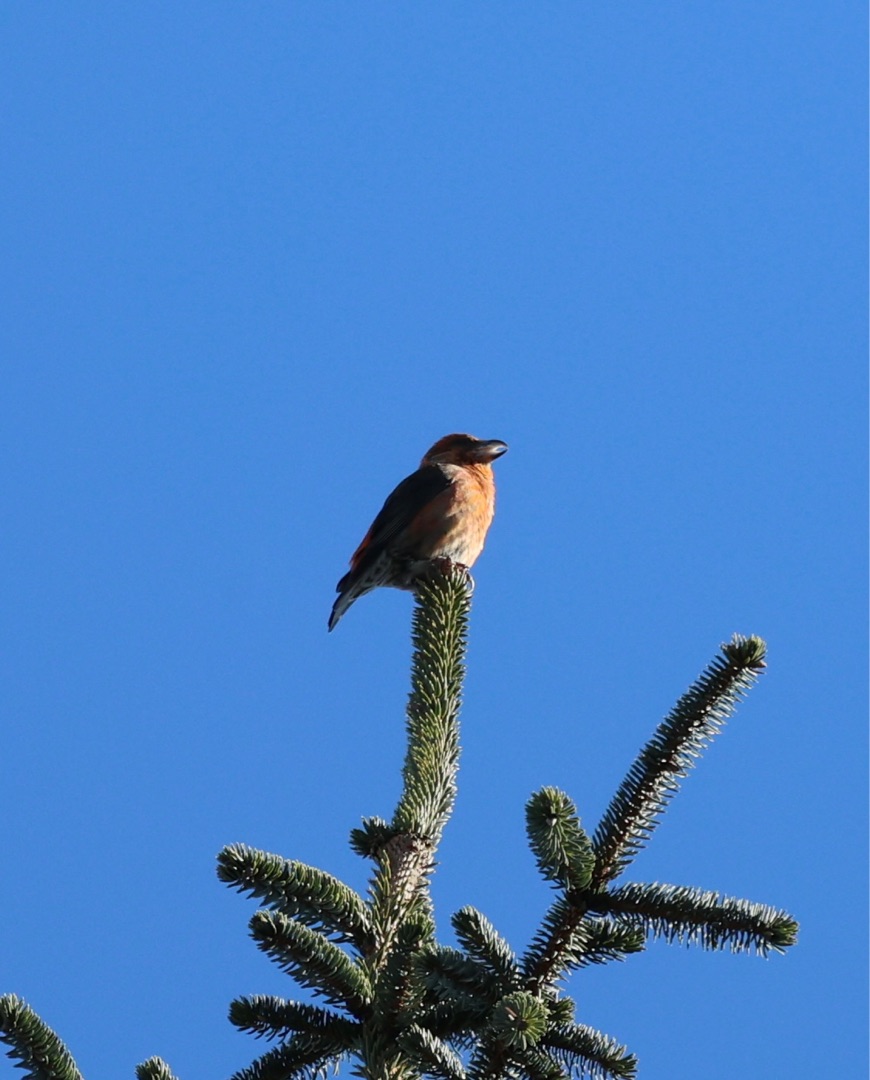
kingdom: Animalia
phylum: Chordata
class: Aves
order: Passeriformes
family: Fringillidae
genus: Loxia
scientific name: Loxia curvirostra
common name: Lille korsnæb
